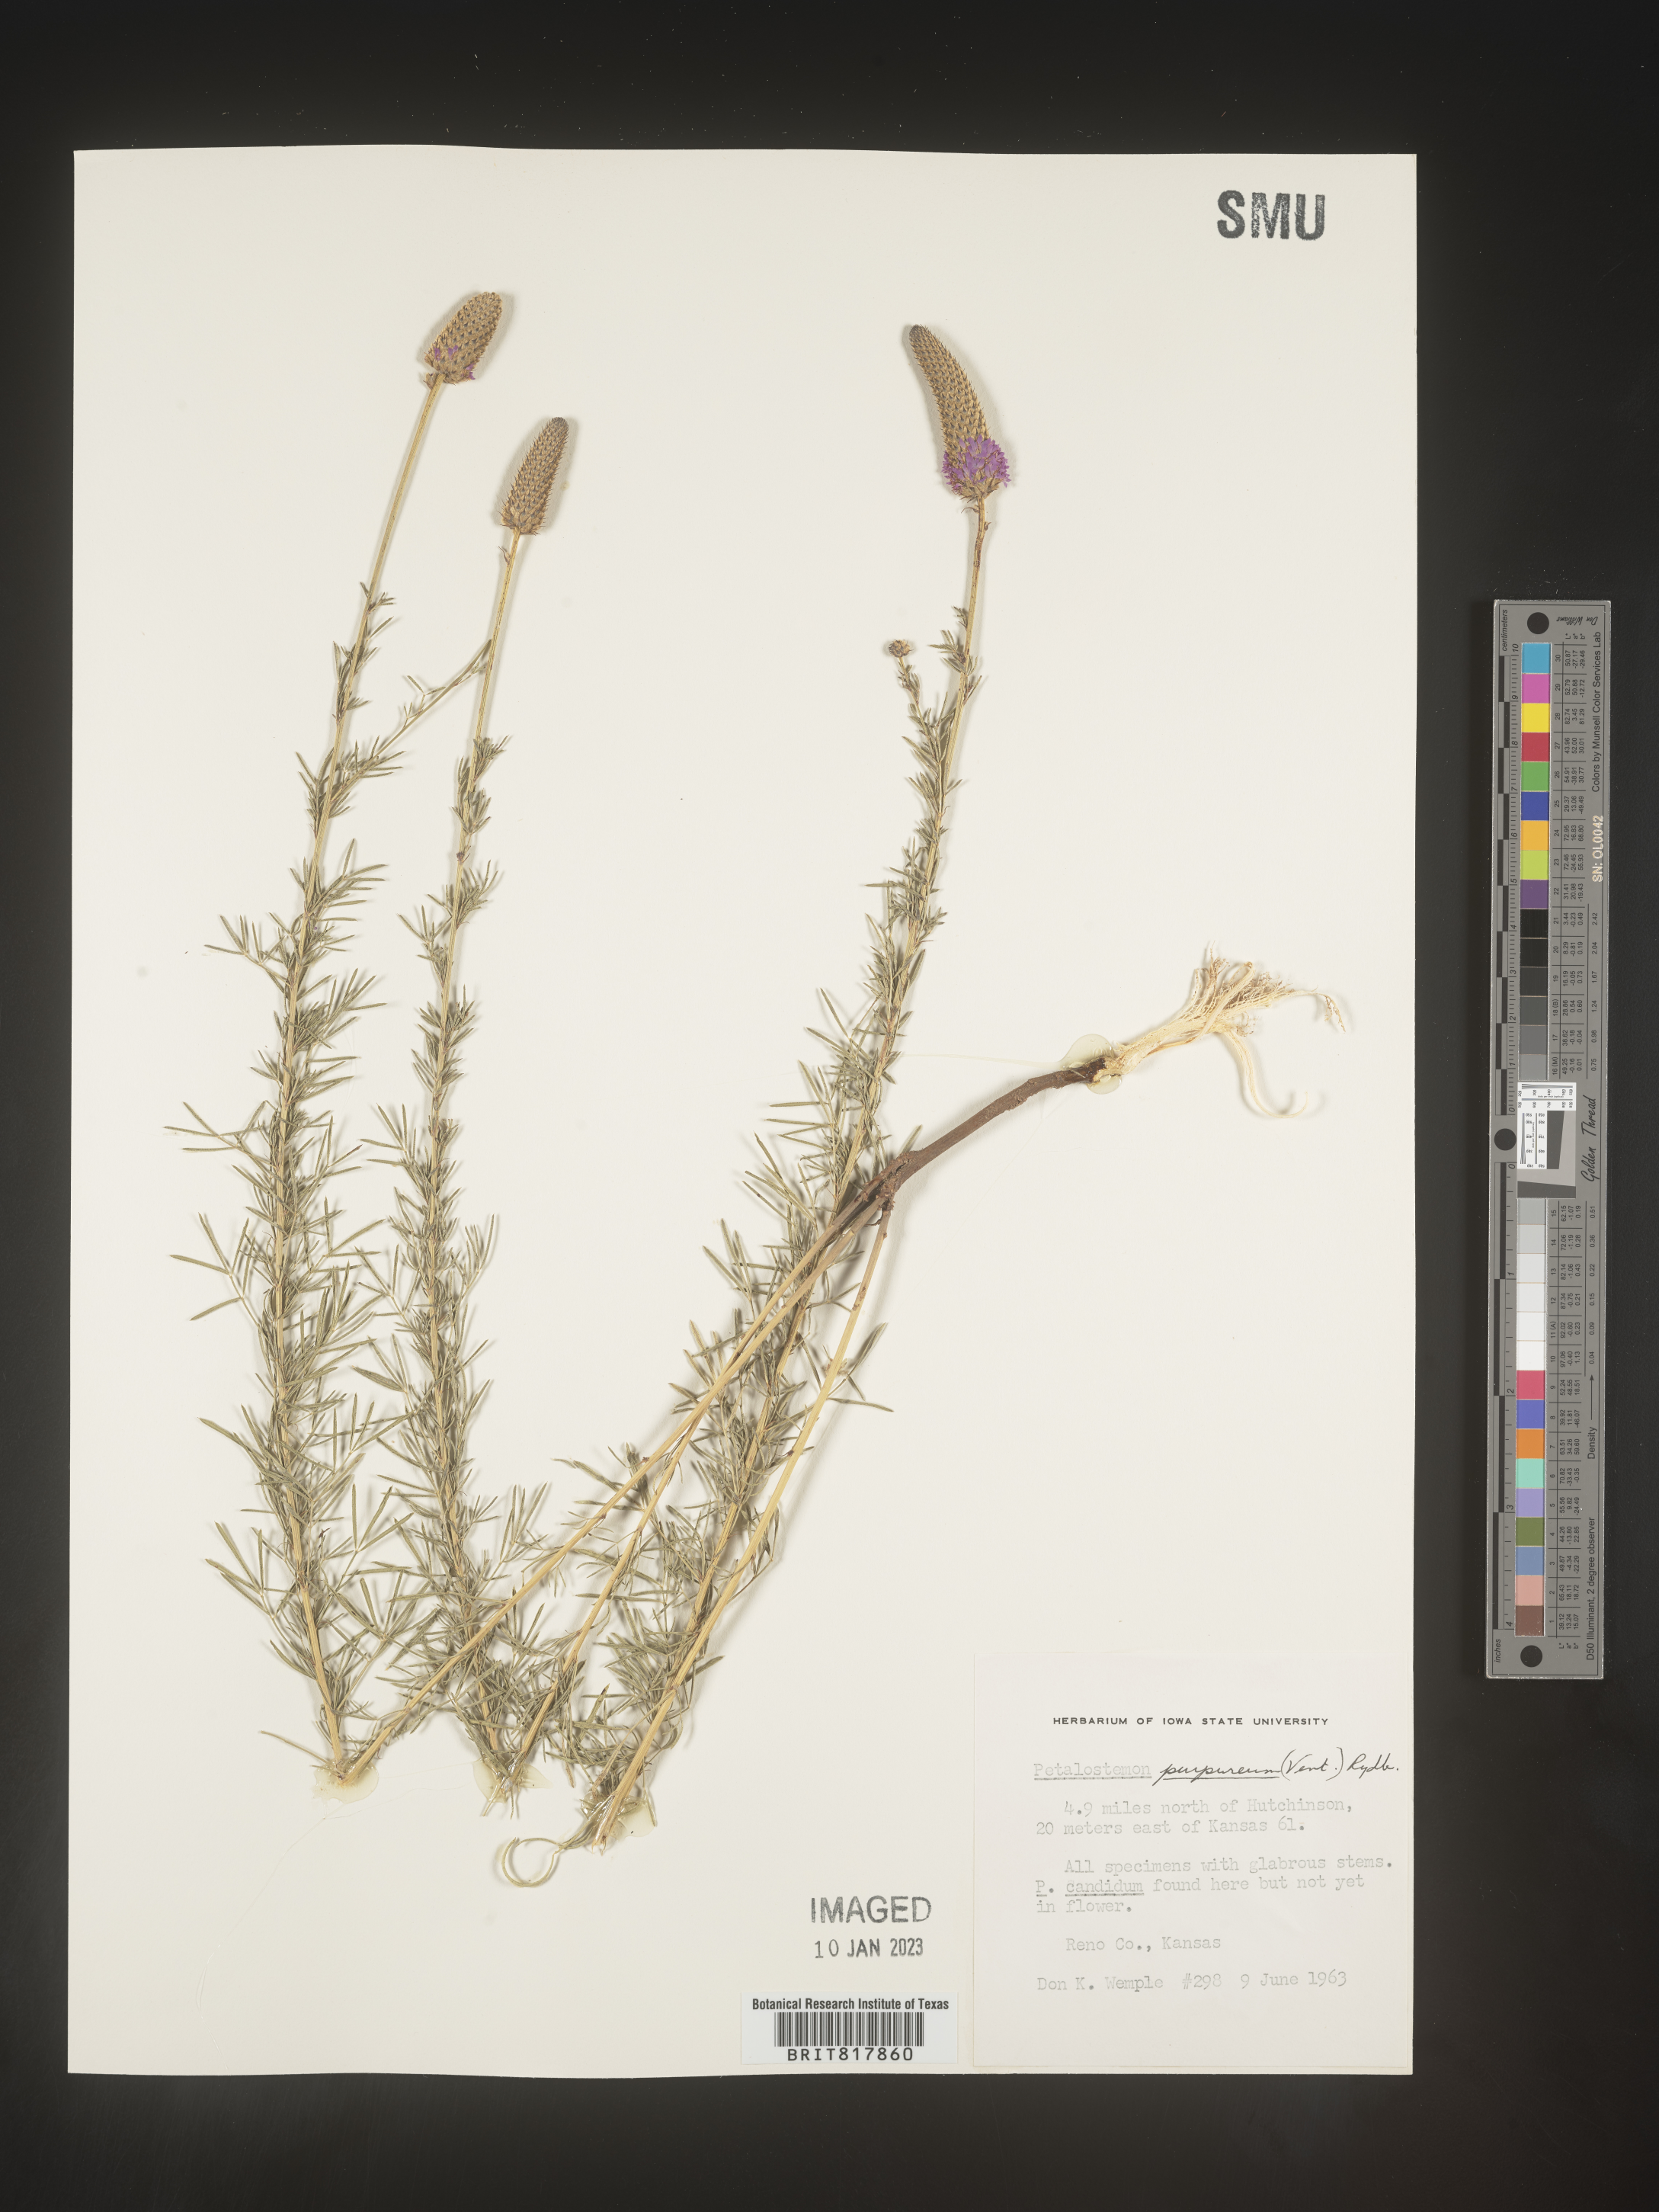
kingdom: Plantae
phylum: Tracheophyta
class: Magnoliopsida
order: Fabales
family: Fabaceae
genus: Dalea
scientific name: Dalea purpurea
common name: Purple prairie-clover
